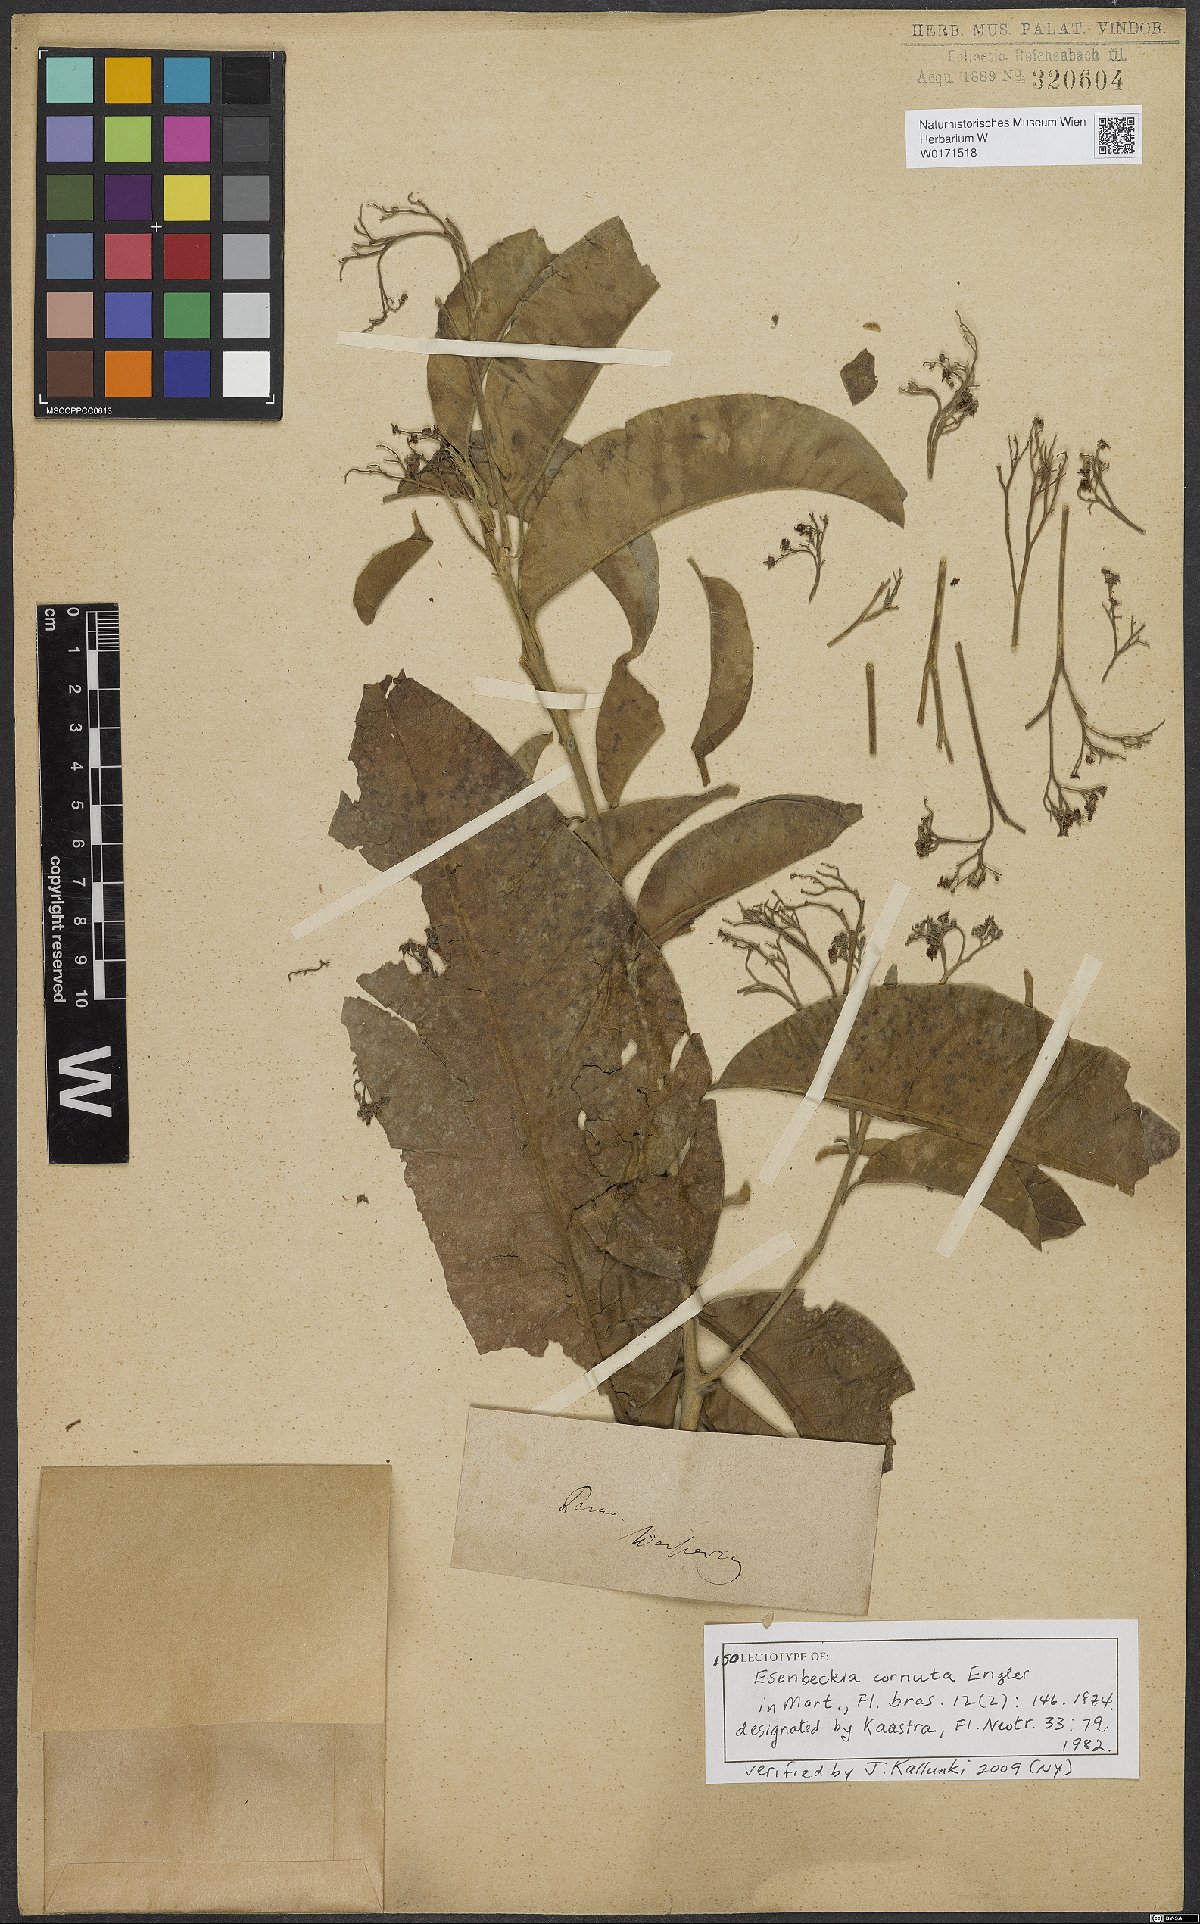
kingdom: Animalia
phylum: Arthropoda
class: Insecta
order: Diptera
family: Tabanidae
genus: Esenbeckia
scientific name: Esenbeckia cornuta
